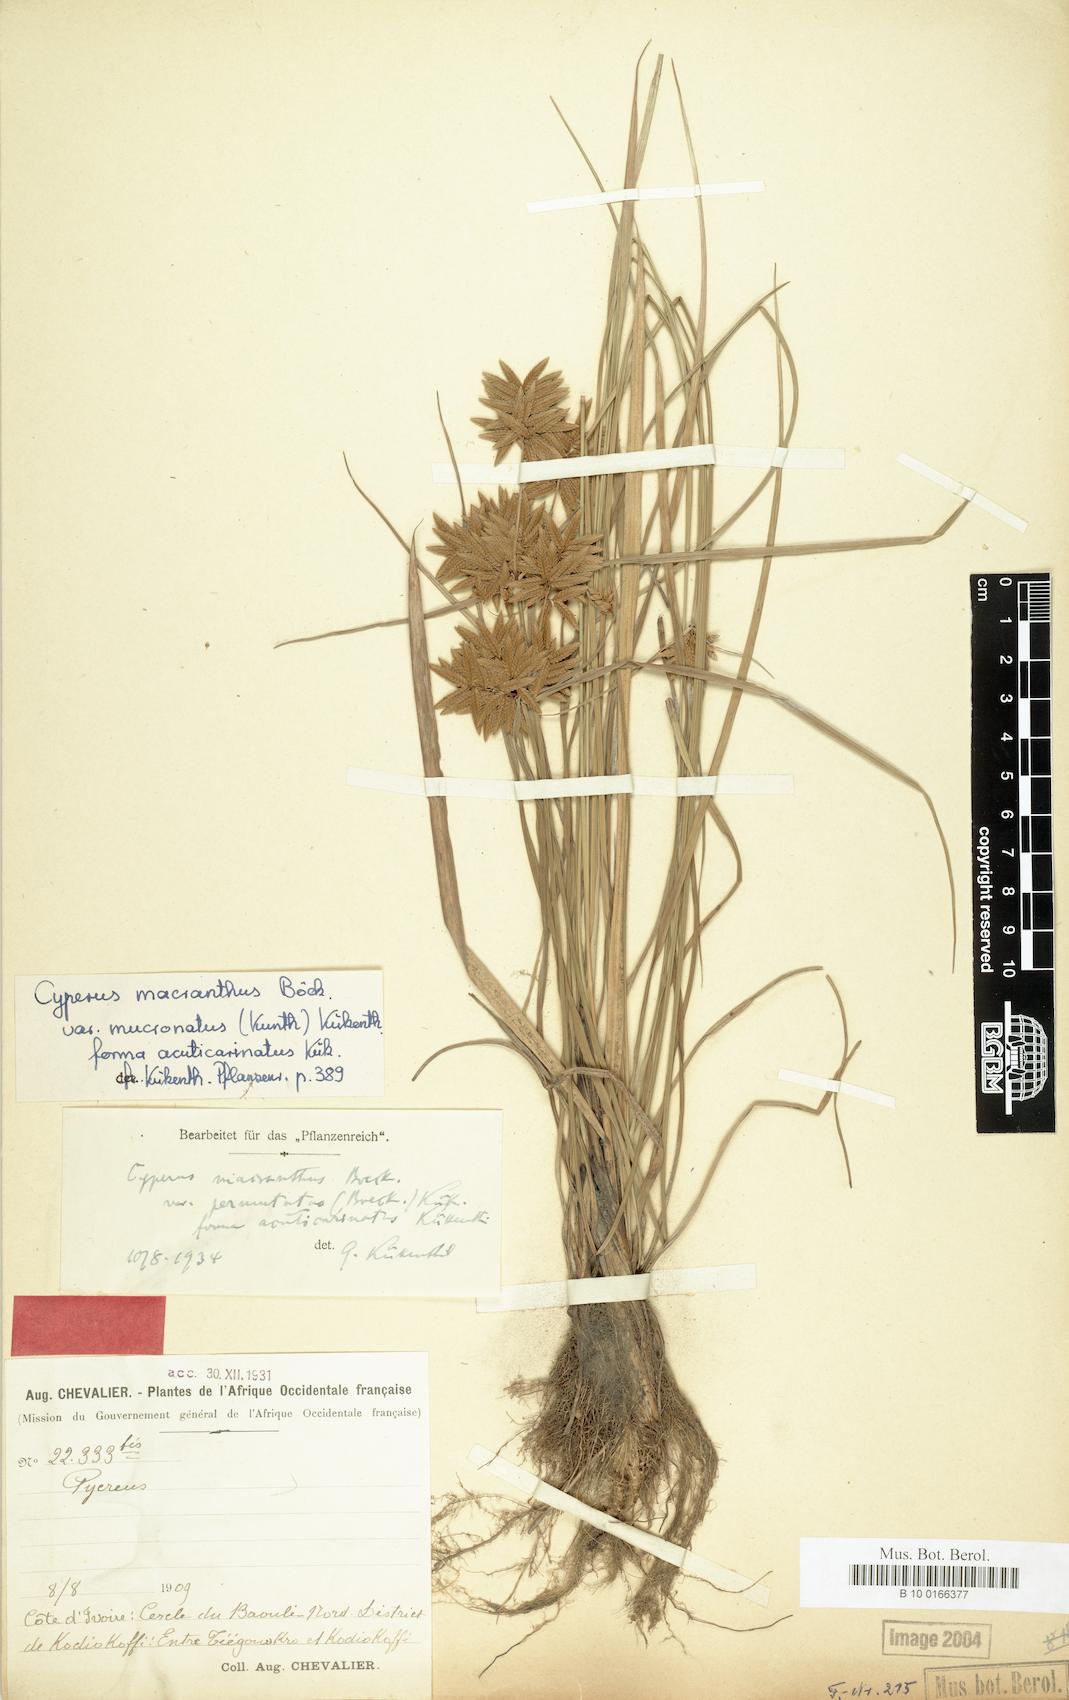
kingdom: Plantae
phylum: Tracheophyta
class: Liliopsida
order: Poales
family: Cyperaceae
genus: Cyperus
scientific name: Cyperus nigricans
